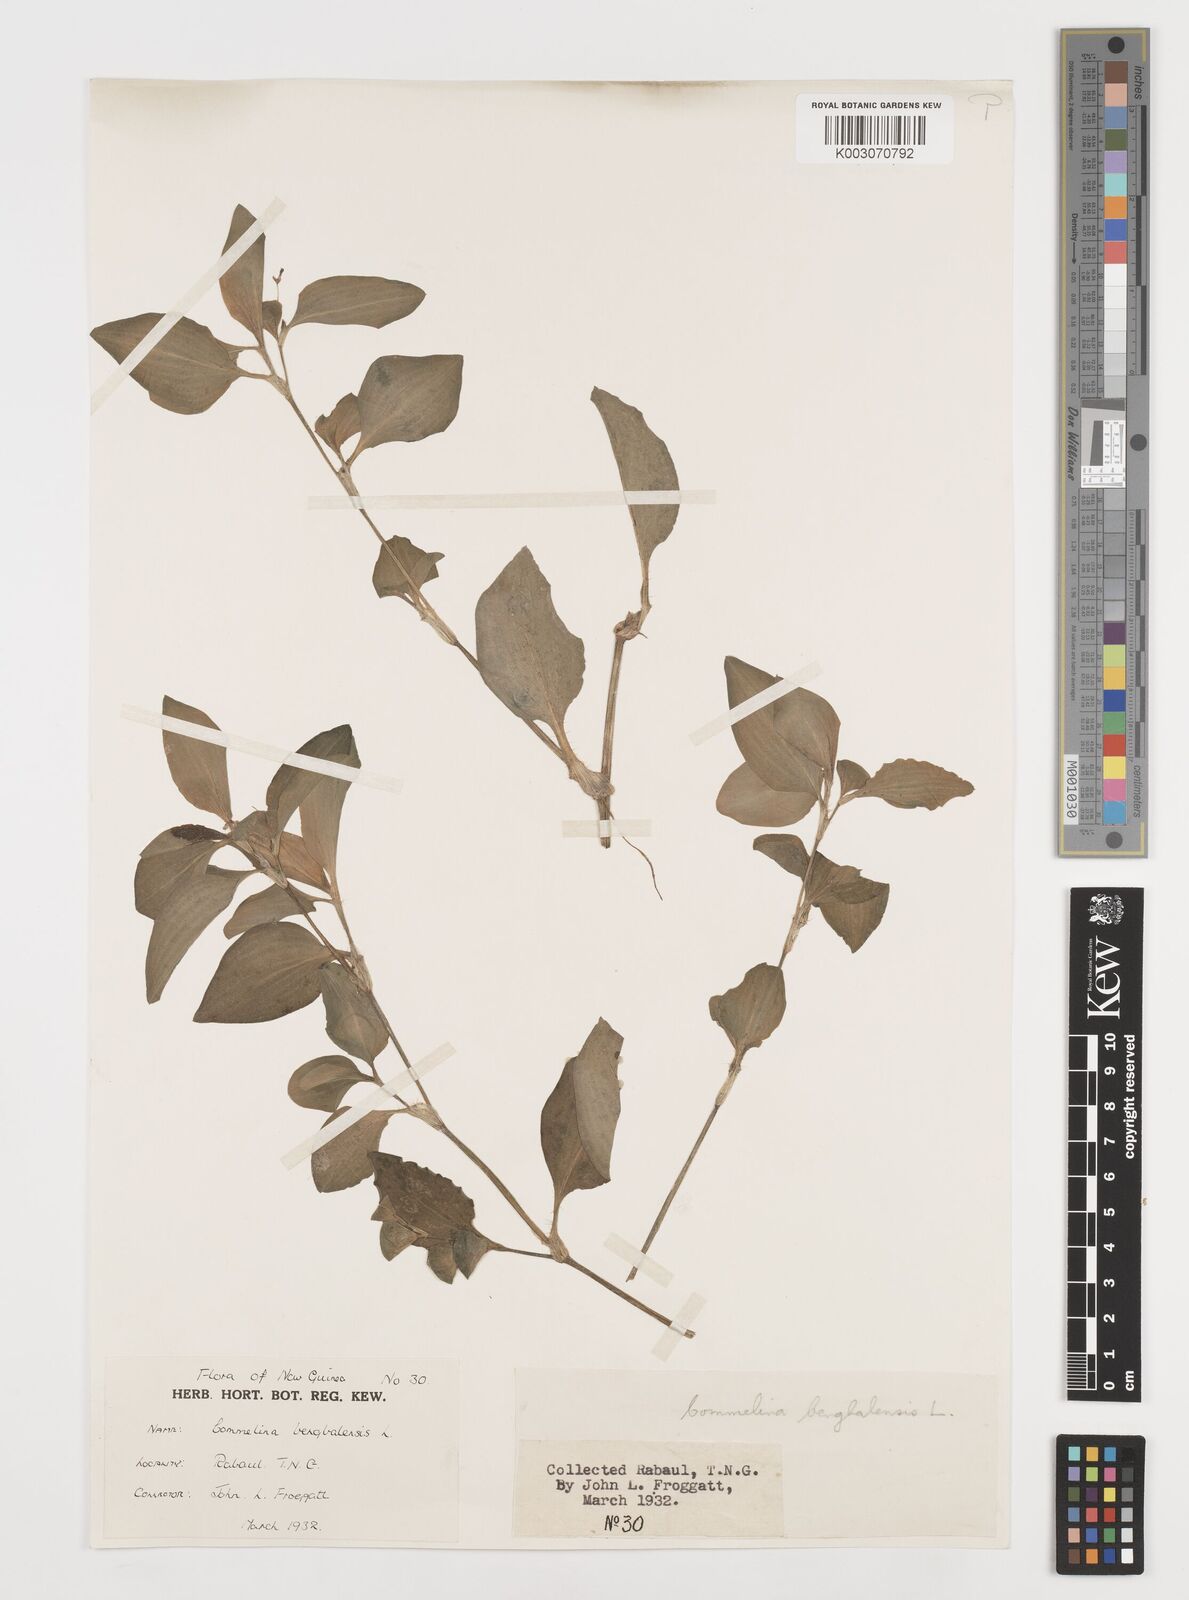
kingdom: Plantae
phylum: Tracheophyta
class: Liliopsida
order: Commelinales
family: Commelinaceae
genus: Commelina
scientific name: Commelina benghalensis
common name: Jio
